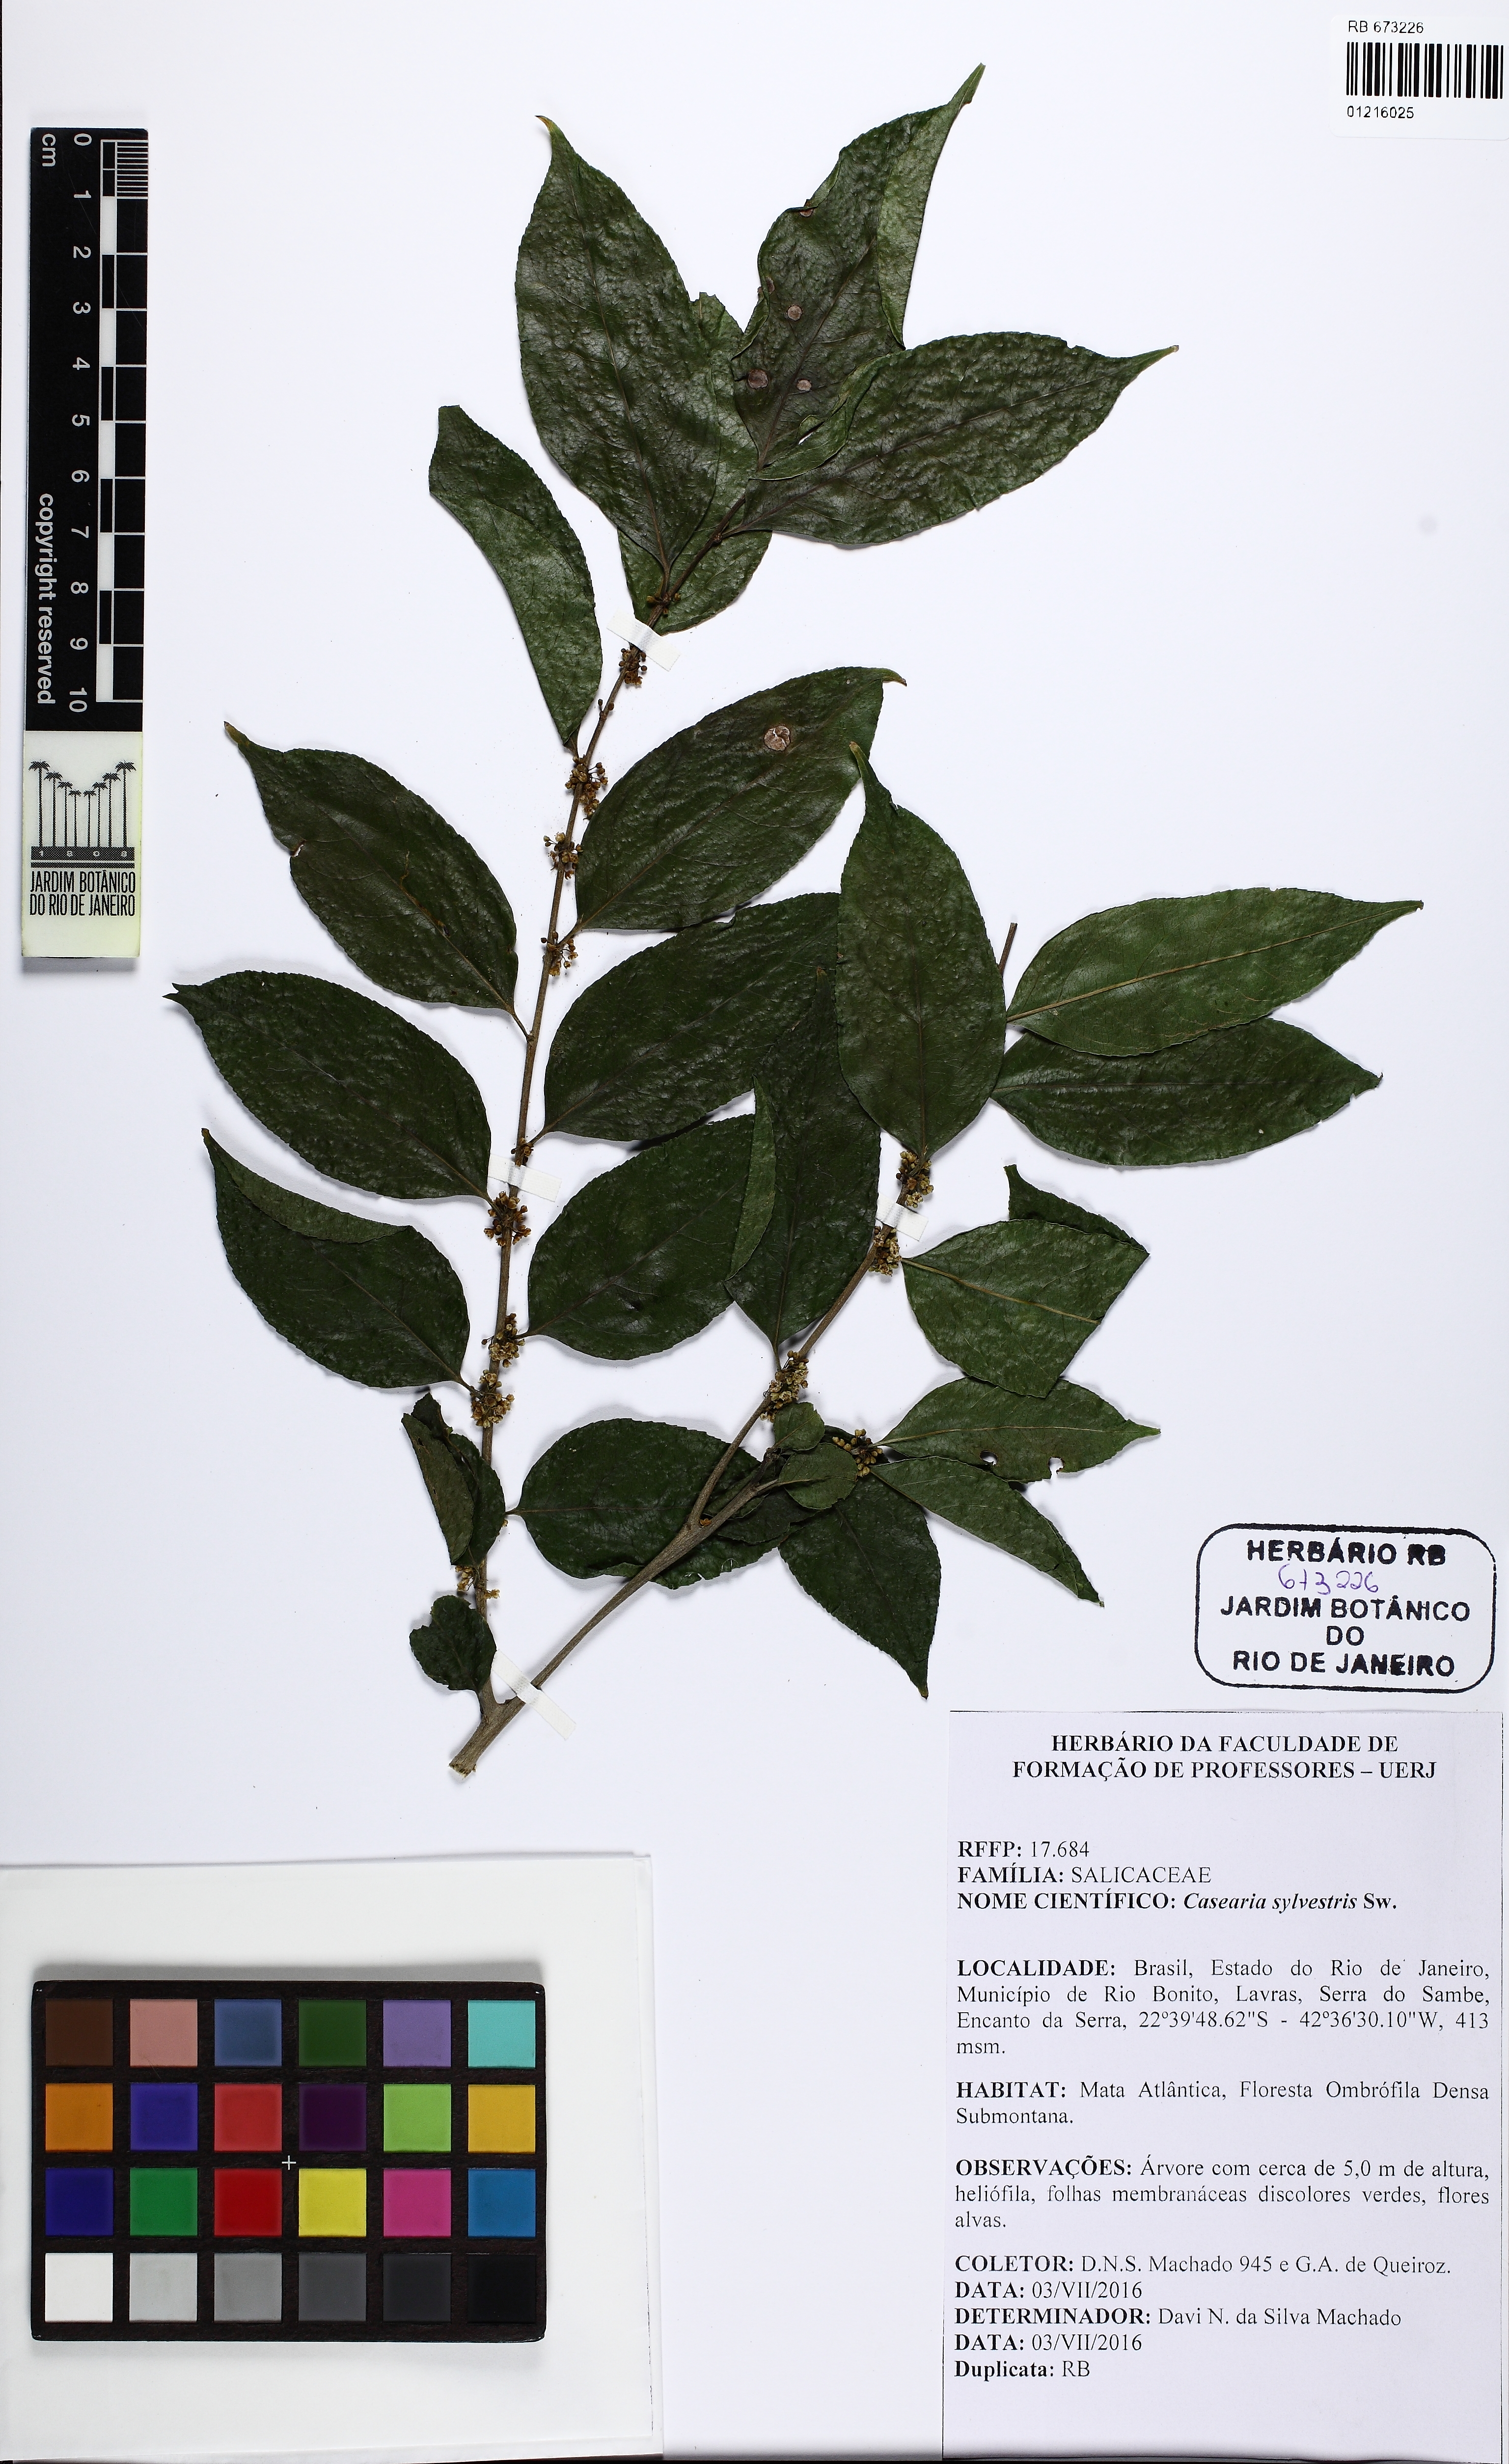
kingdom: Plantae
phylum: Tracheophyta
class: Magnoliopsida
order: Malpighiales
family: Salicaceae
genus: Casearia
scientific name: Casearia sylvestris
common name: Wild sage
